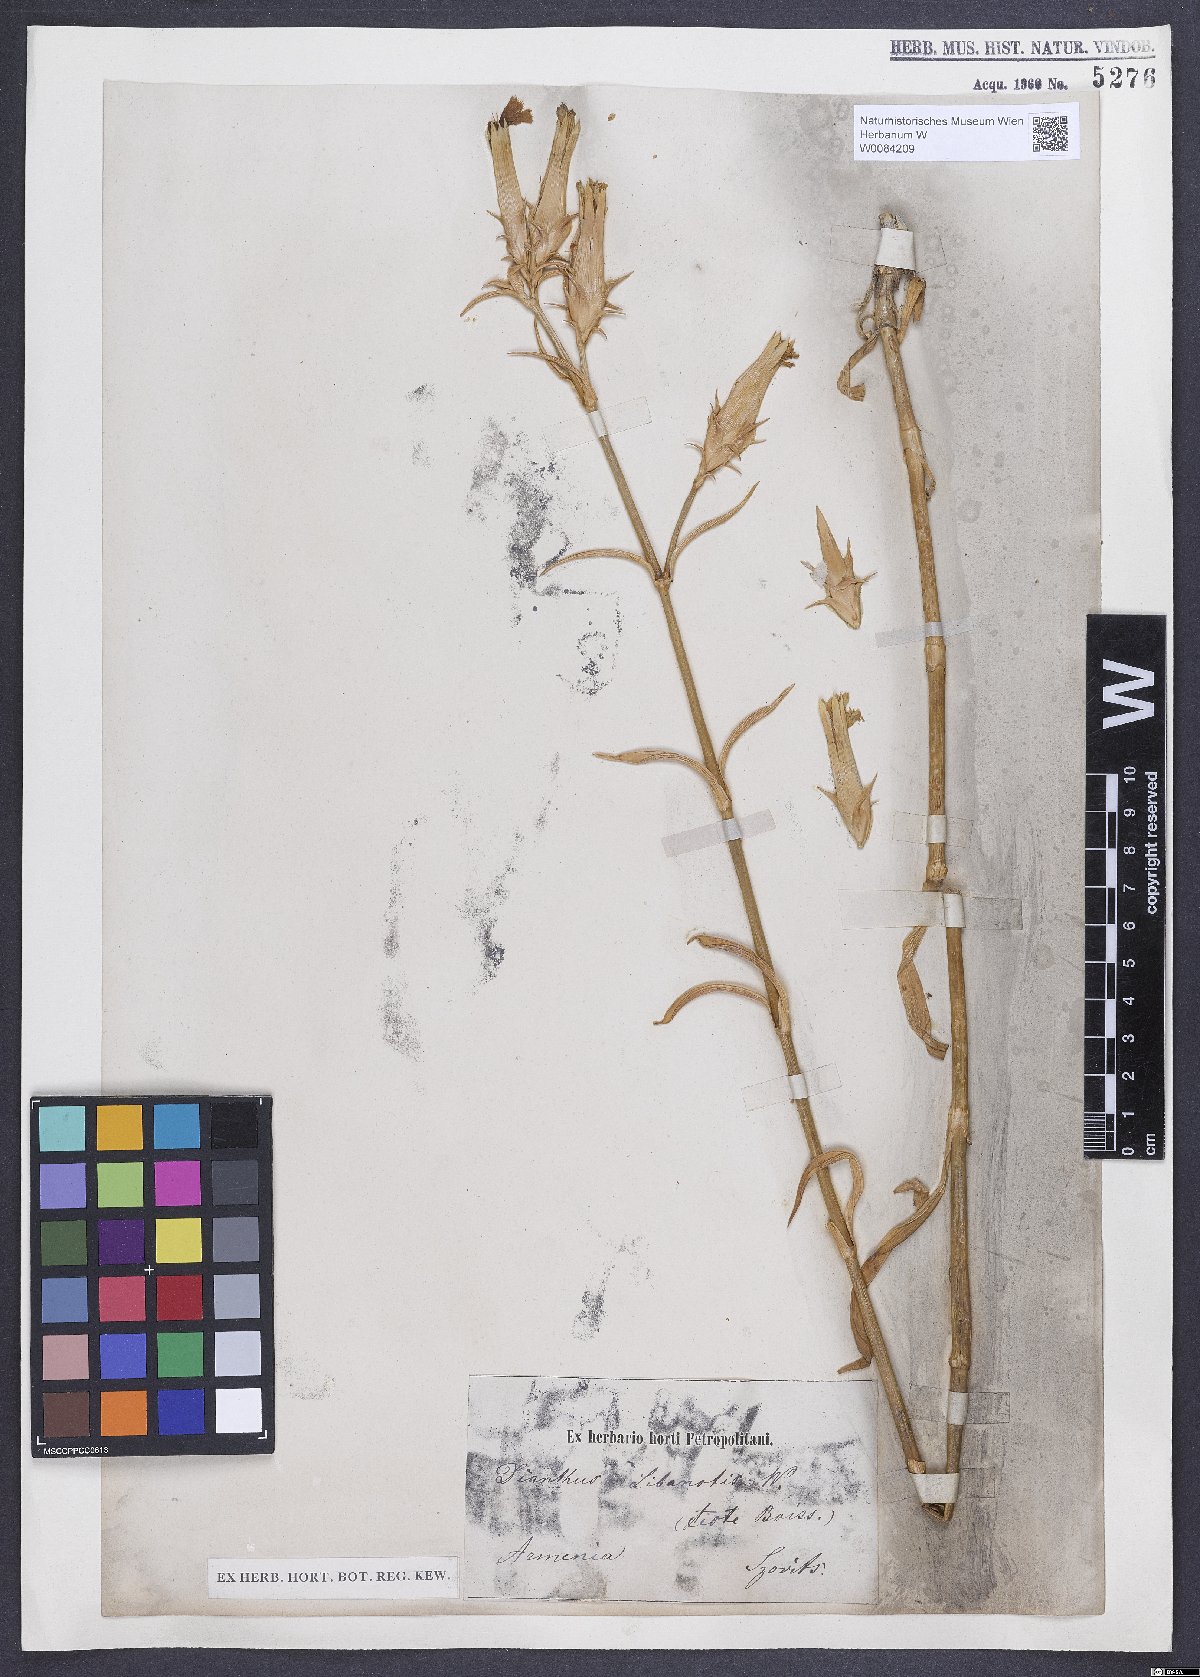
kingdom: Plantae
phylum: Tracheophyta
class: Magnoliopsida
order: Caryophyllales
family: Caryophyllaceae
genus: Dianthus
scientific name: Dianthus libanotis
